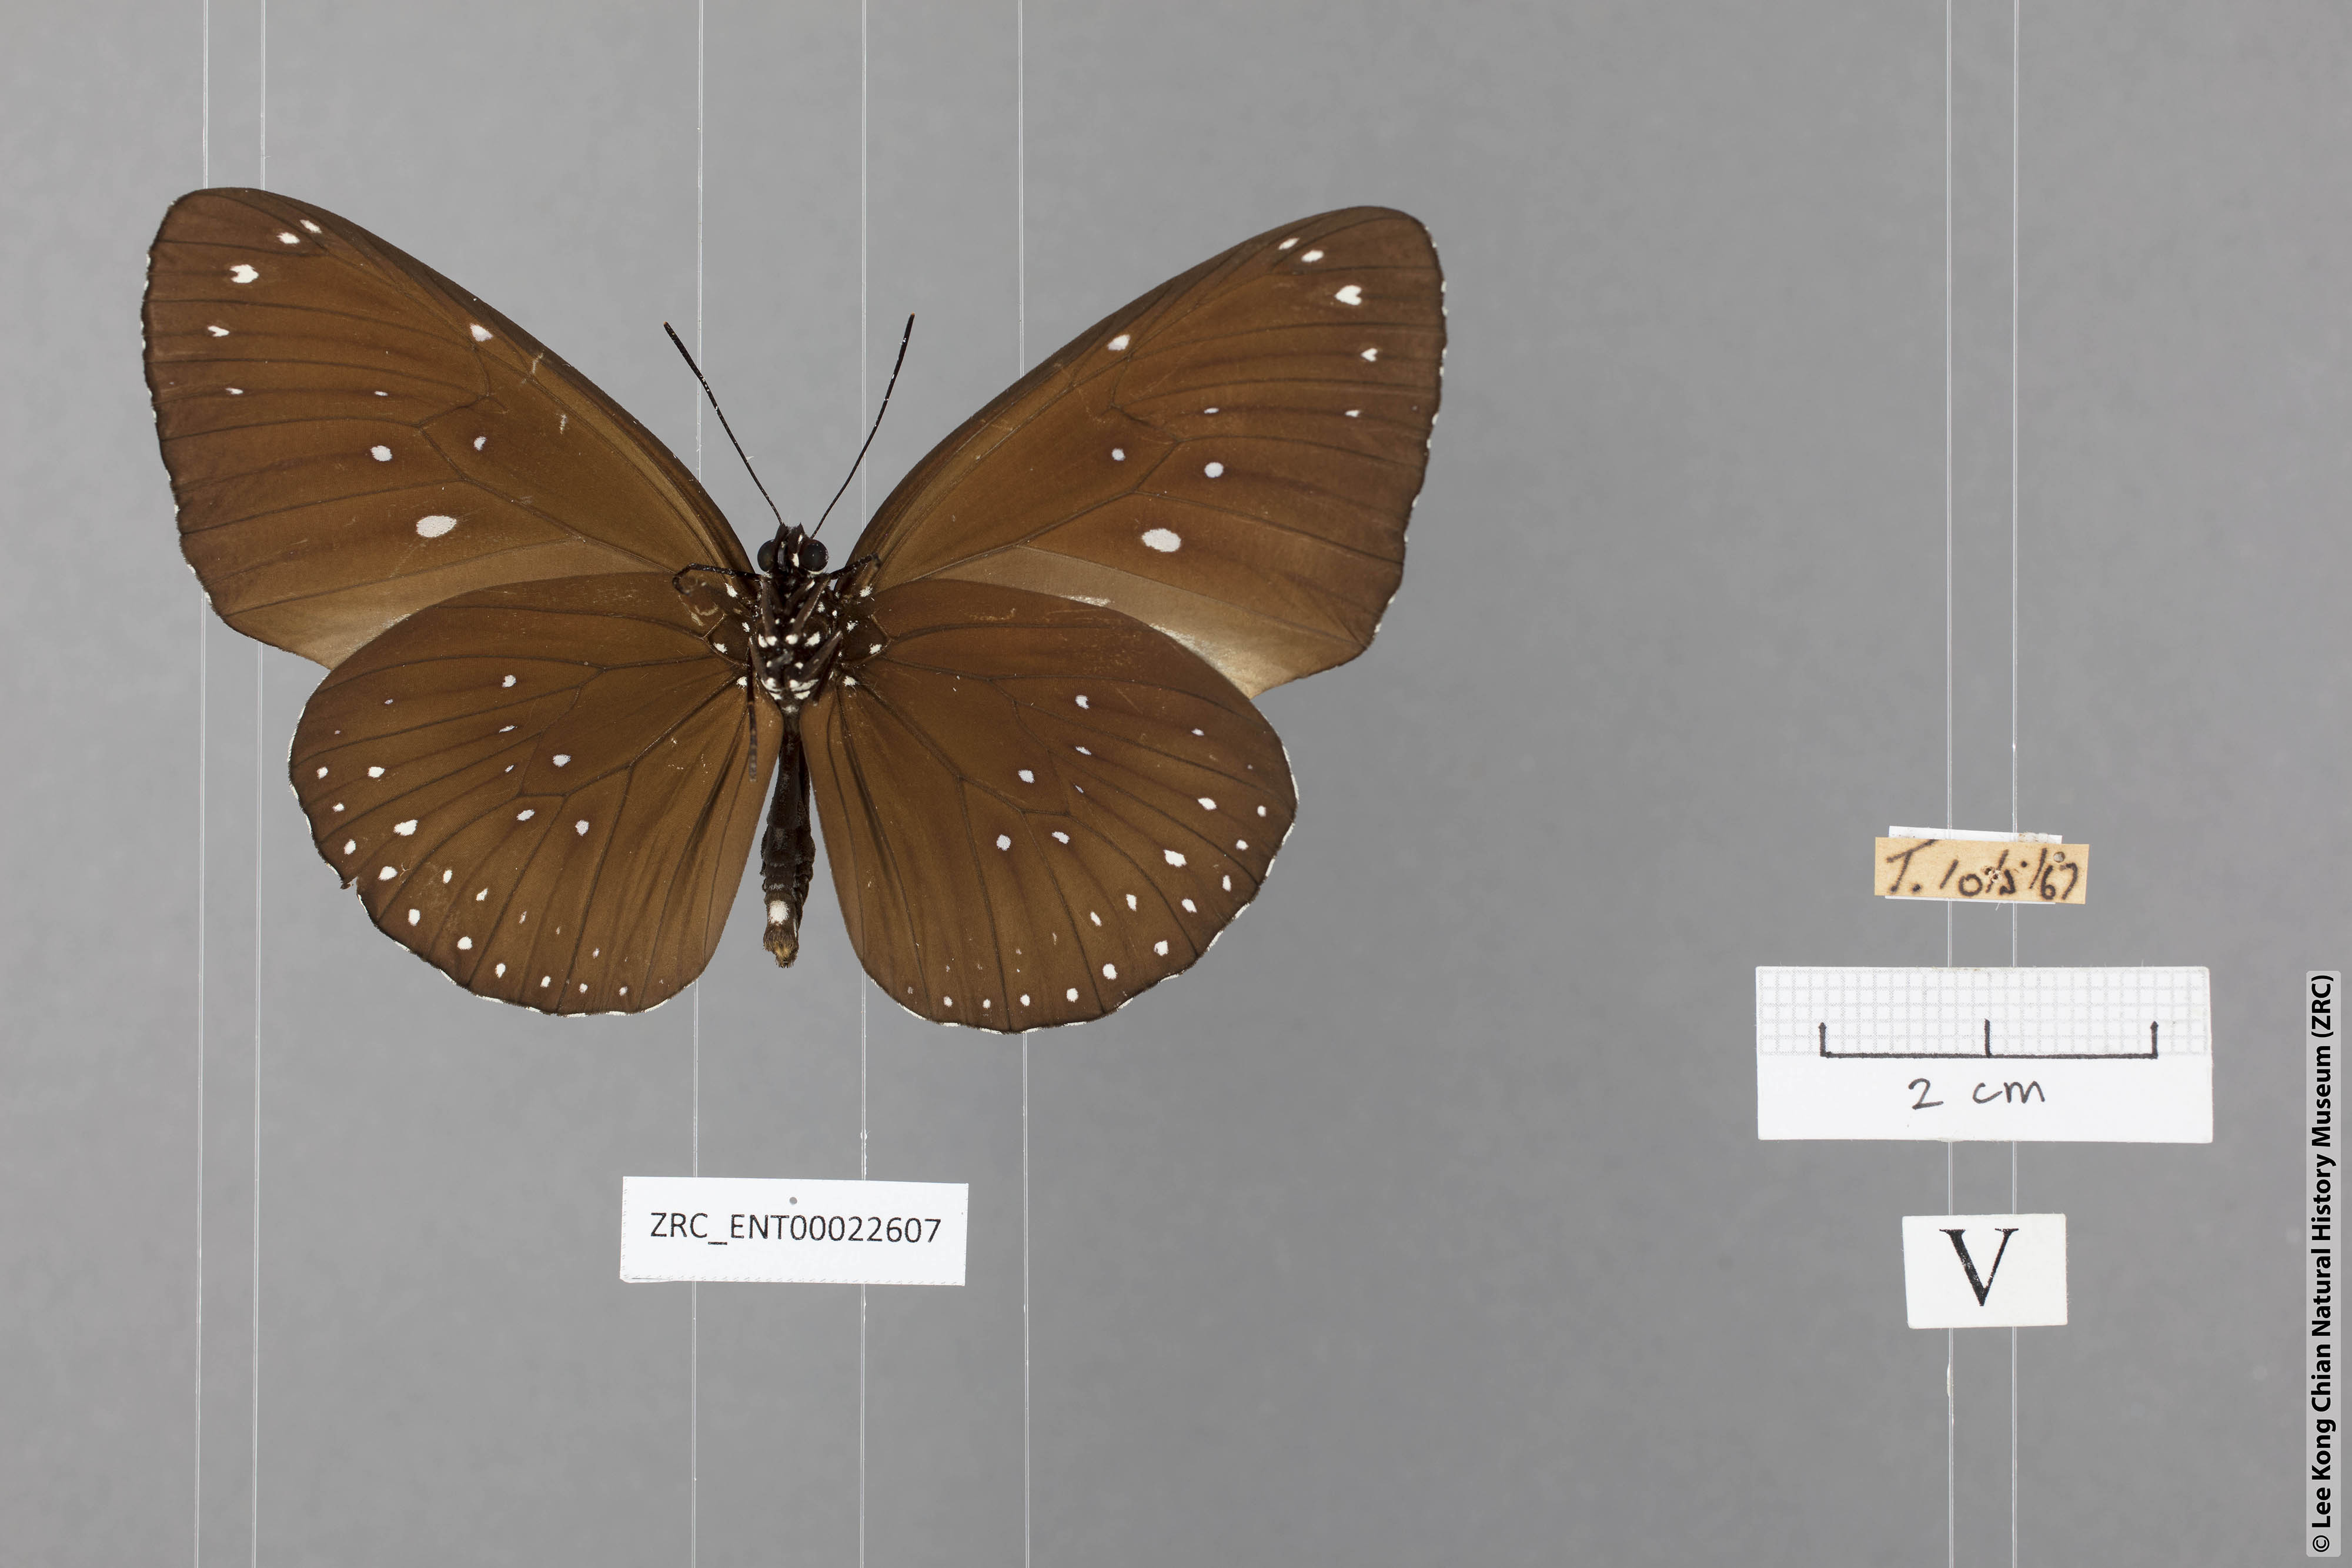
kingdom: Animalia
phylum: Arthropoda
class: Insecta
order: Lepidoptera
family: Nymphalidae
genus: Euploea
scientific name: Euploea modesta
